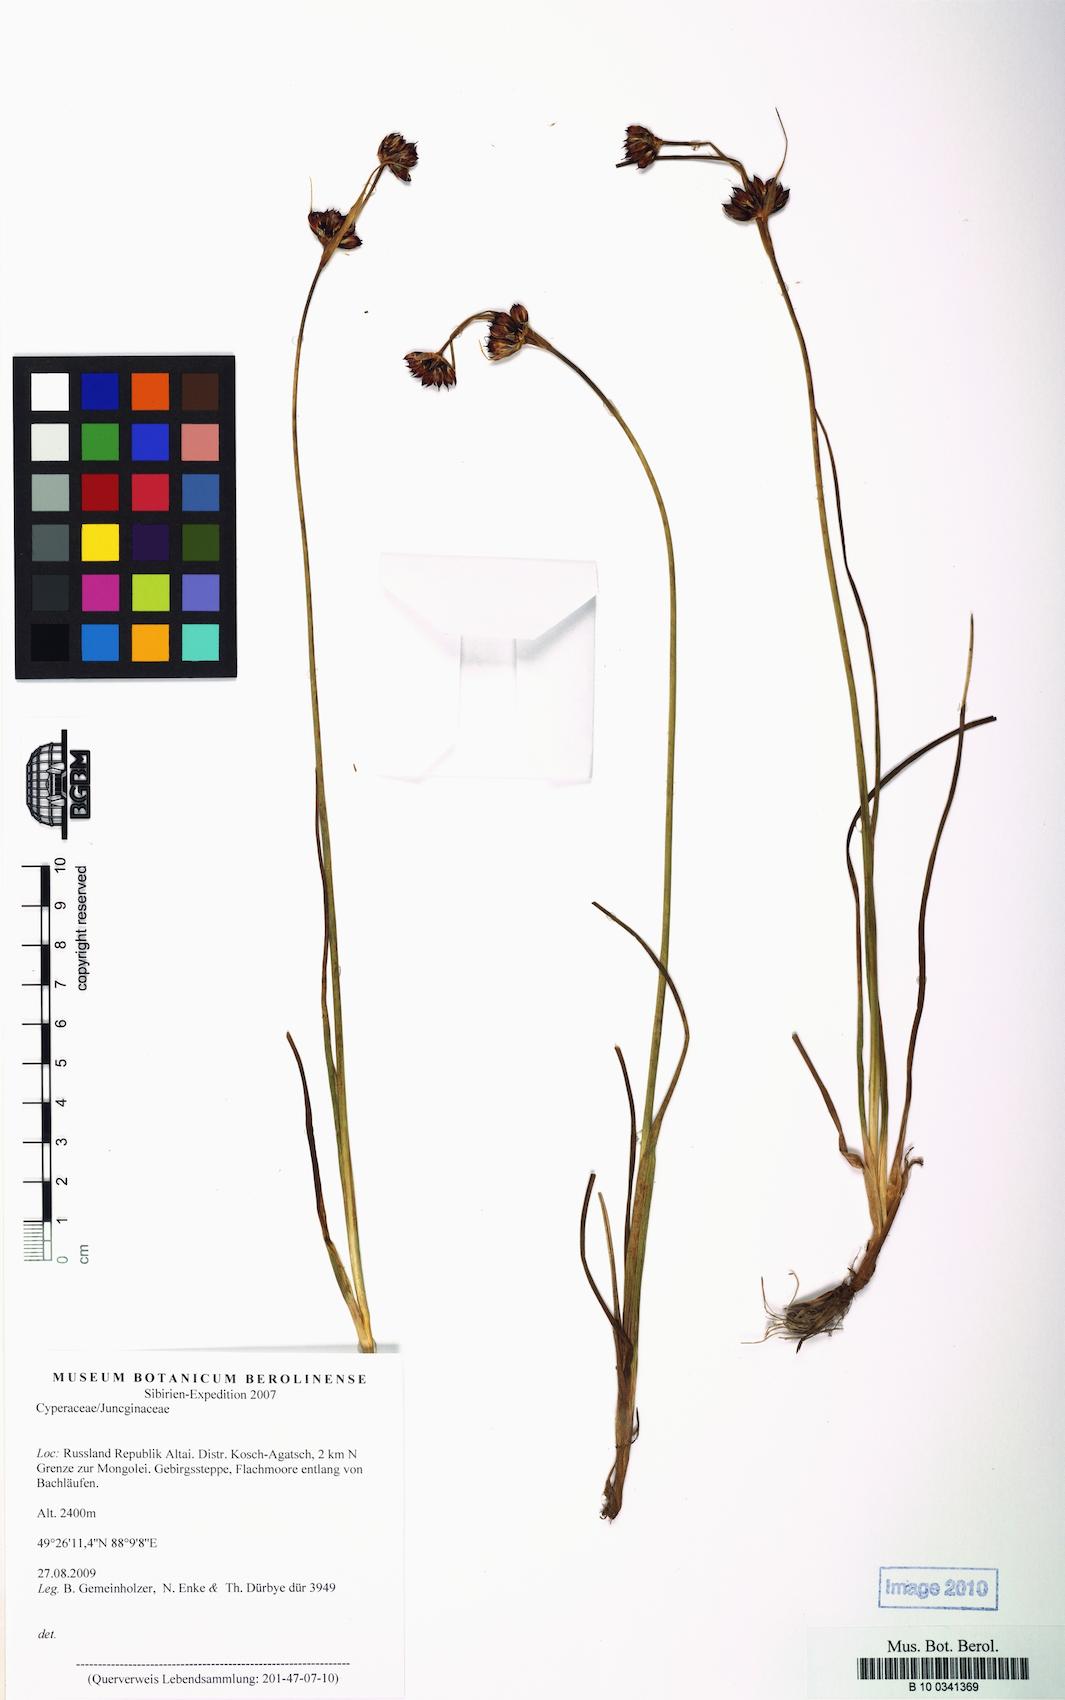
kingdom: Plantae
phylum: Tracheophyta
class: Liliopsida
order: Poales
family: Juncaceae
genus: Juncus
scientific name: Juncus castaneus
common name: Chestnut rush
